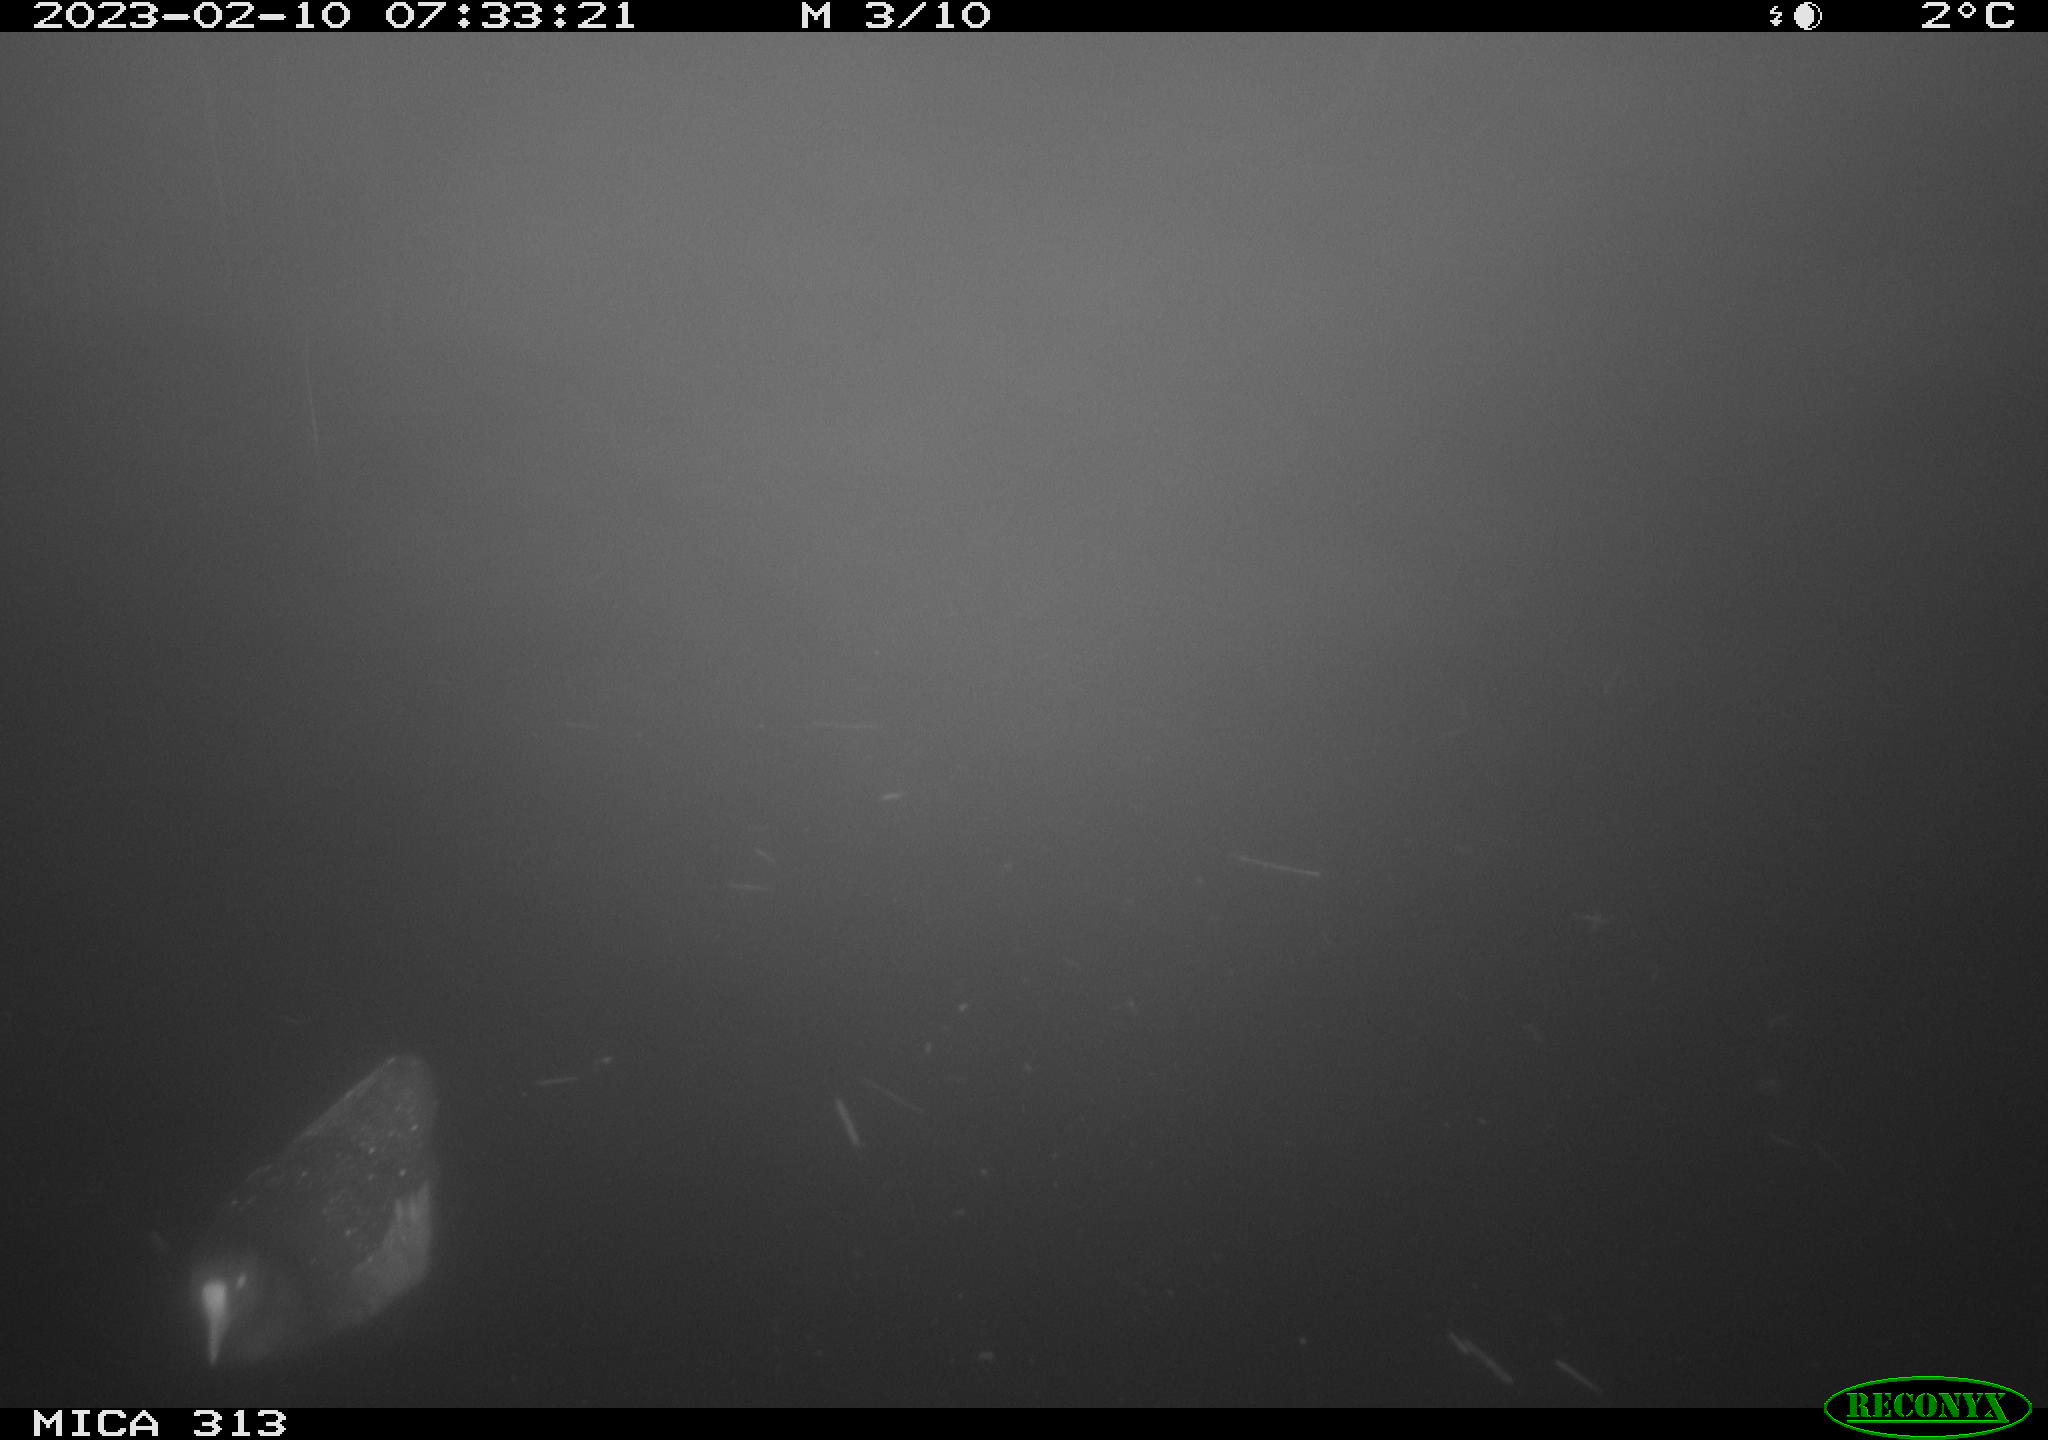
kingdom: Animalia
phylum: Chordata
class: Aves
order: Gruiformes
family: Rallidae
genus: Gallinula
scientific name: Gallinula chloropus
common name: Common moorhen
